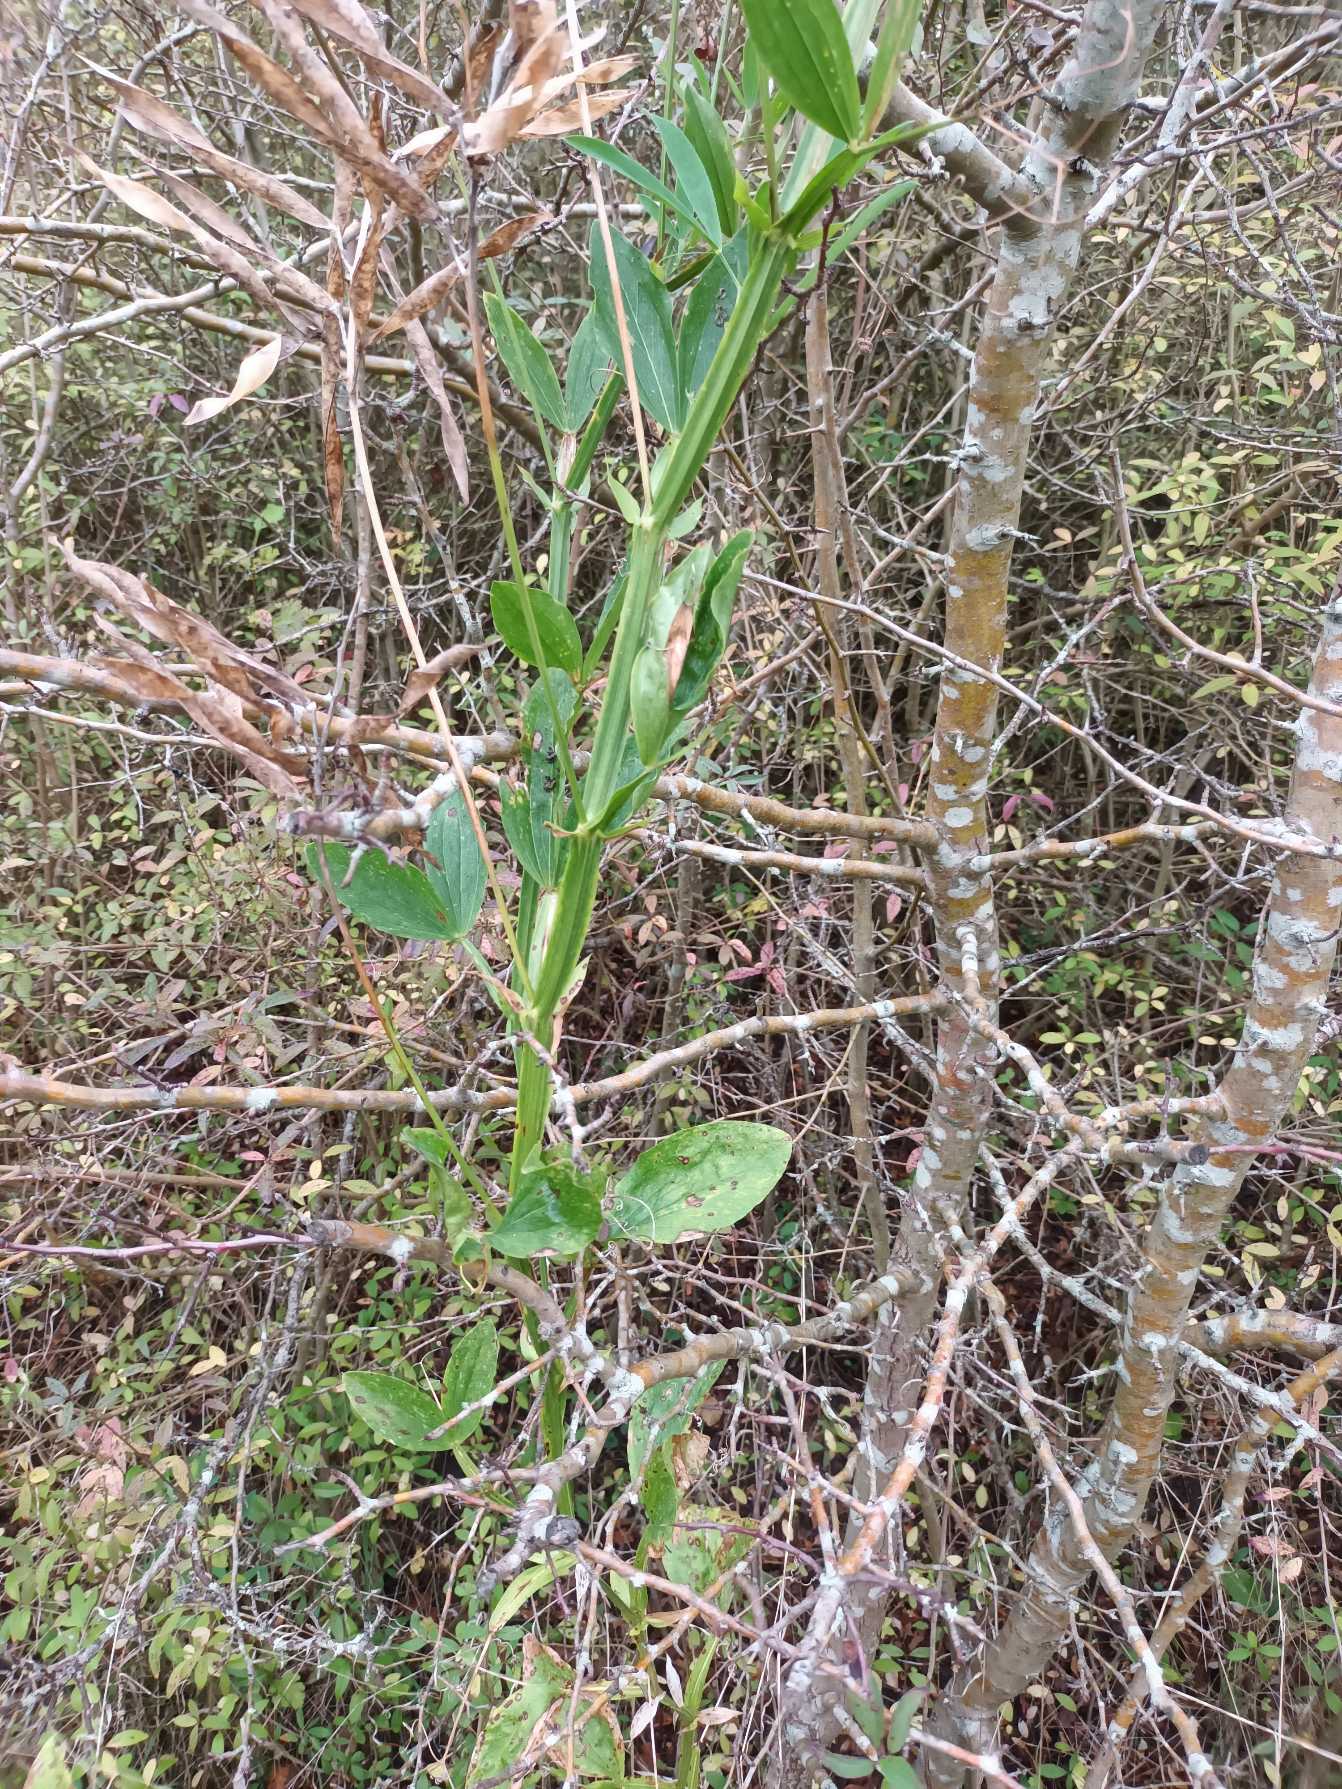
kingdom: Plantae
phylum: Tracheophyta
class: Magnoliopsida
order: Fabales
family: Fabaceae
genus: Lathyrus
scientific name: Lathyrus latifolius
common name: Flerårig ærteblomst
